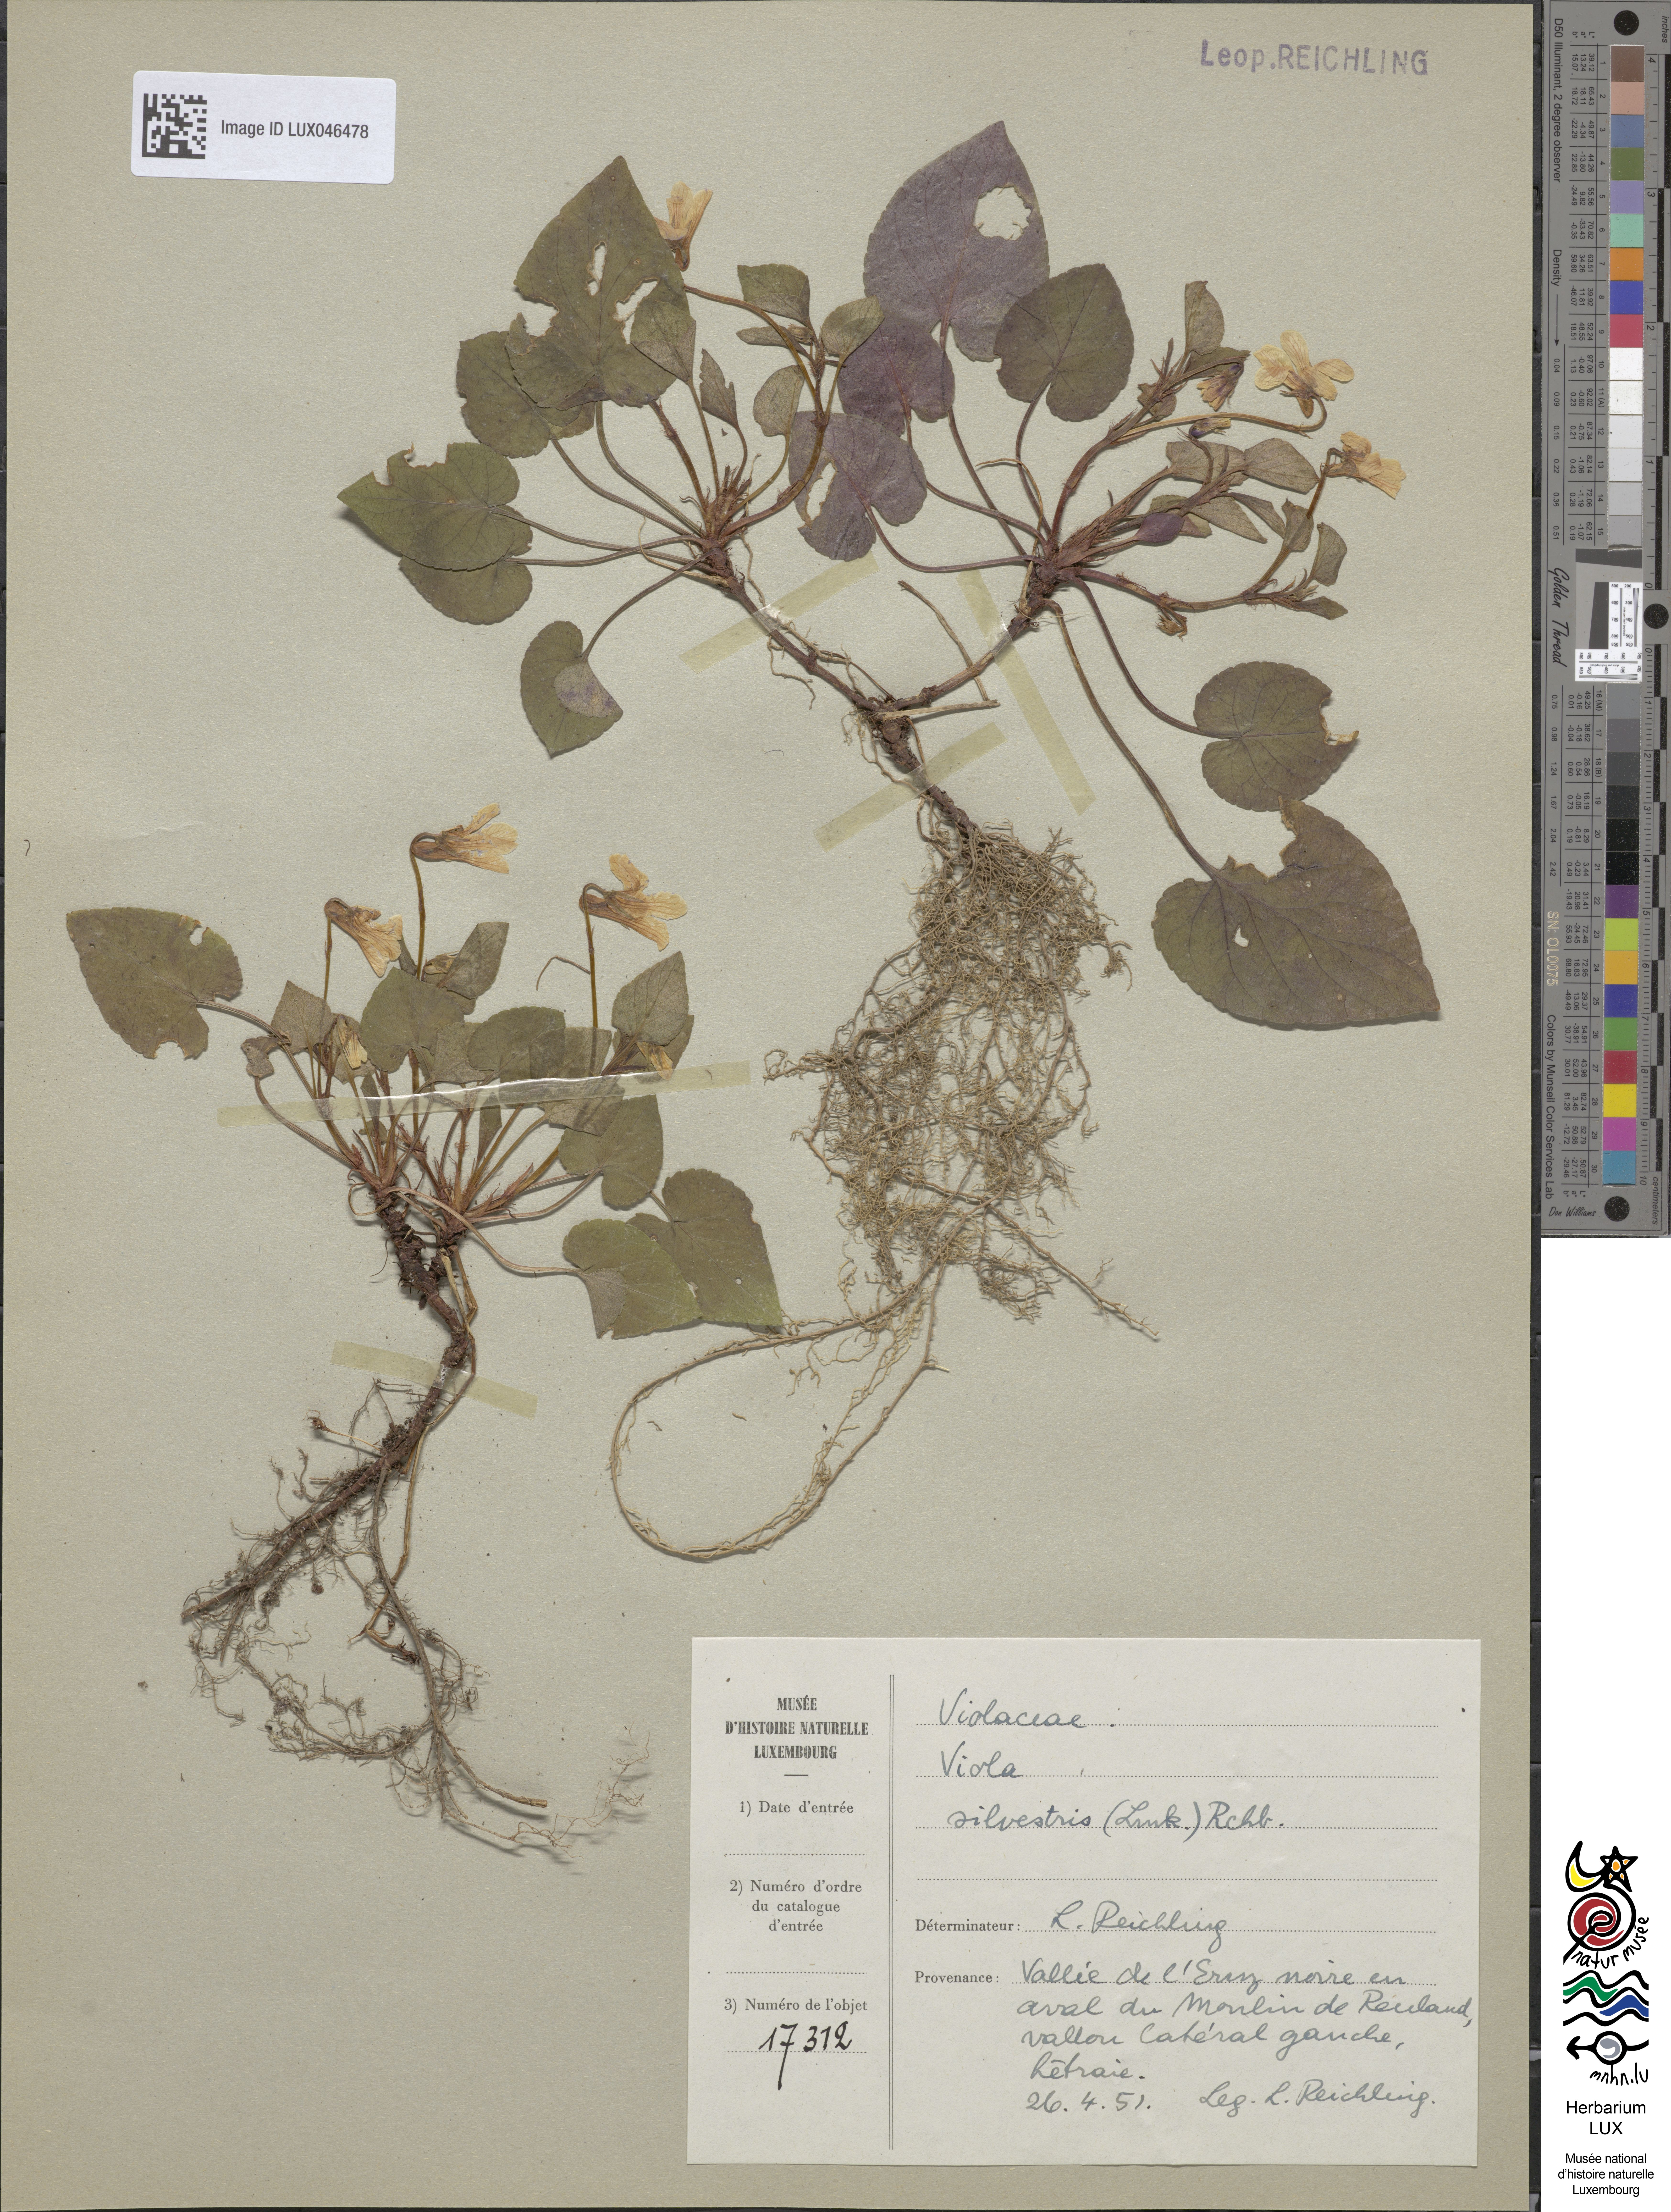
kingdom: Plantae
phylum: Tracheophyta
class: Magnoliopsida
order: Malpighiales
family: Violaceae
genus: Viola
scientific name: Viola reichenbachiana
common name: Early dog-violet
